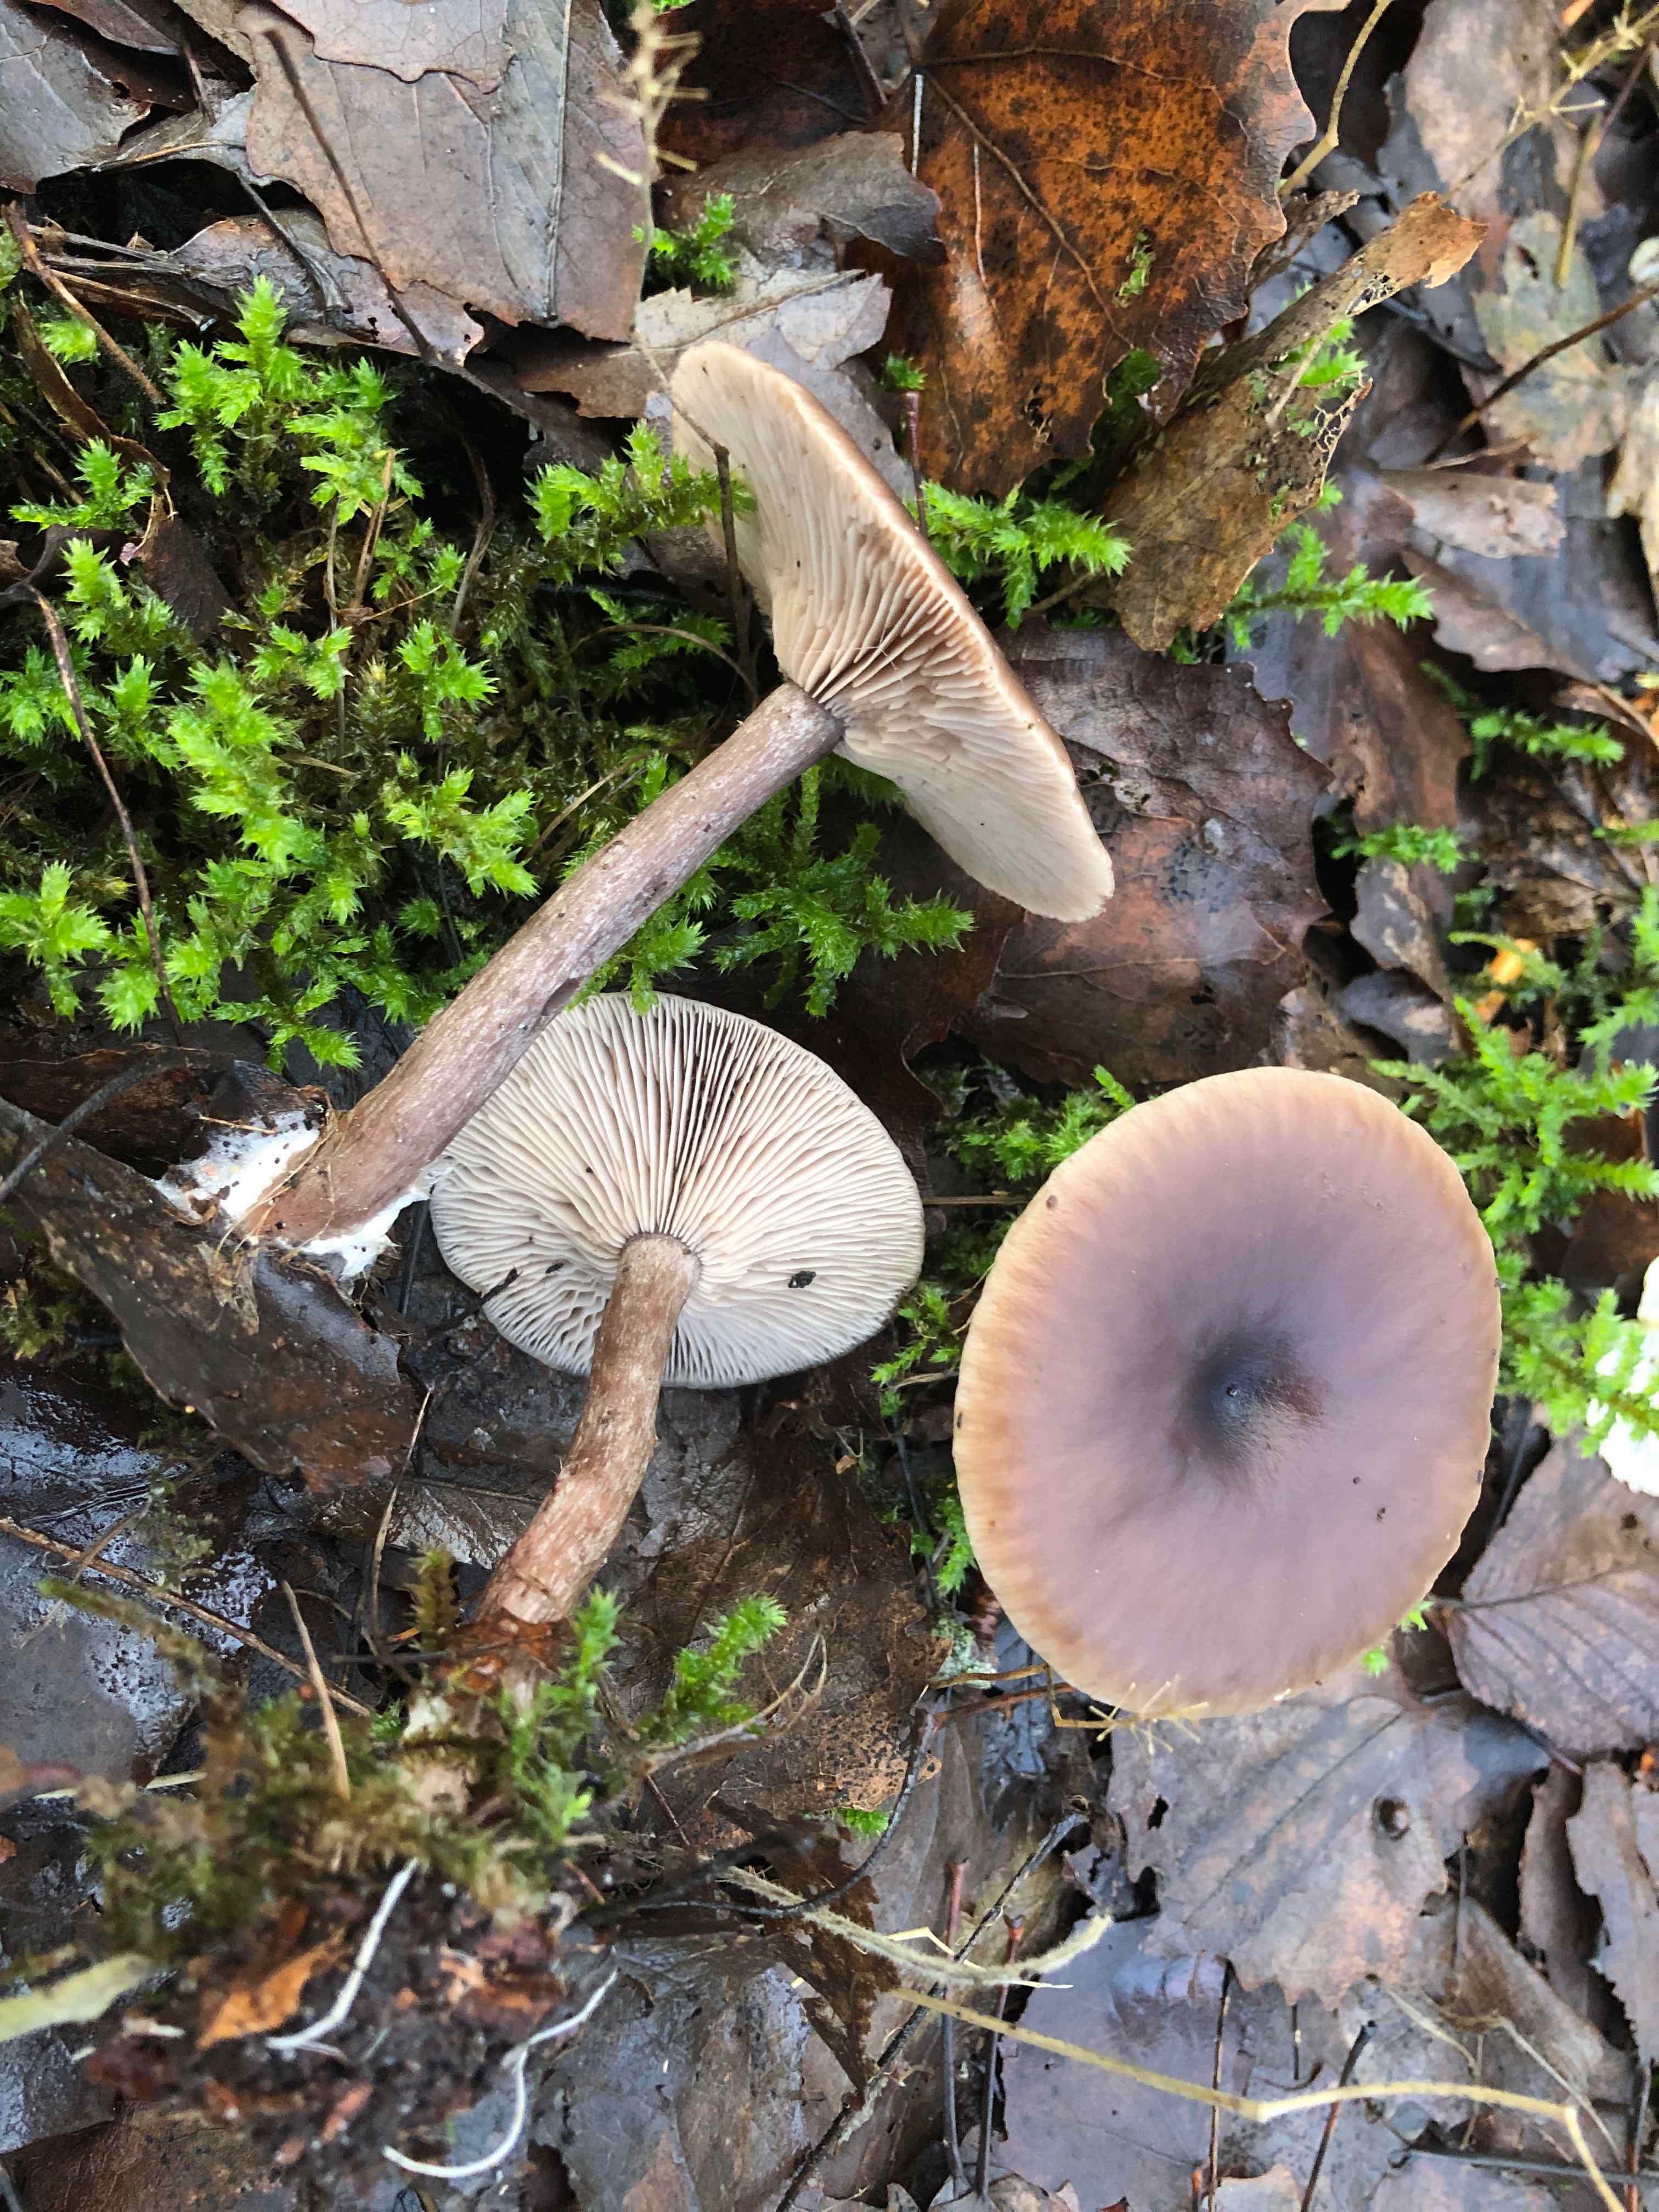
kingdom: Fungi
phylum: Basidiomycota
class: Agaricomycetes
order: Agaricales
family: Pseudoclitocybaceae
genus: Pseudoclitocybe
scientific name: Pseudoclitocybe cyathiformis
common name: almindelig bægertragthat
